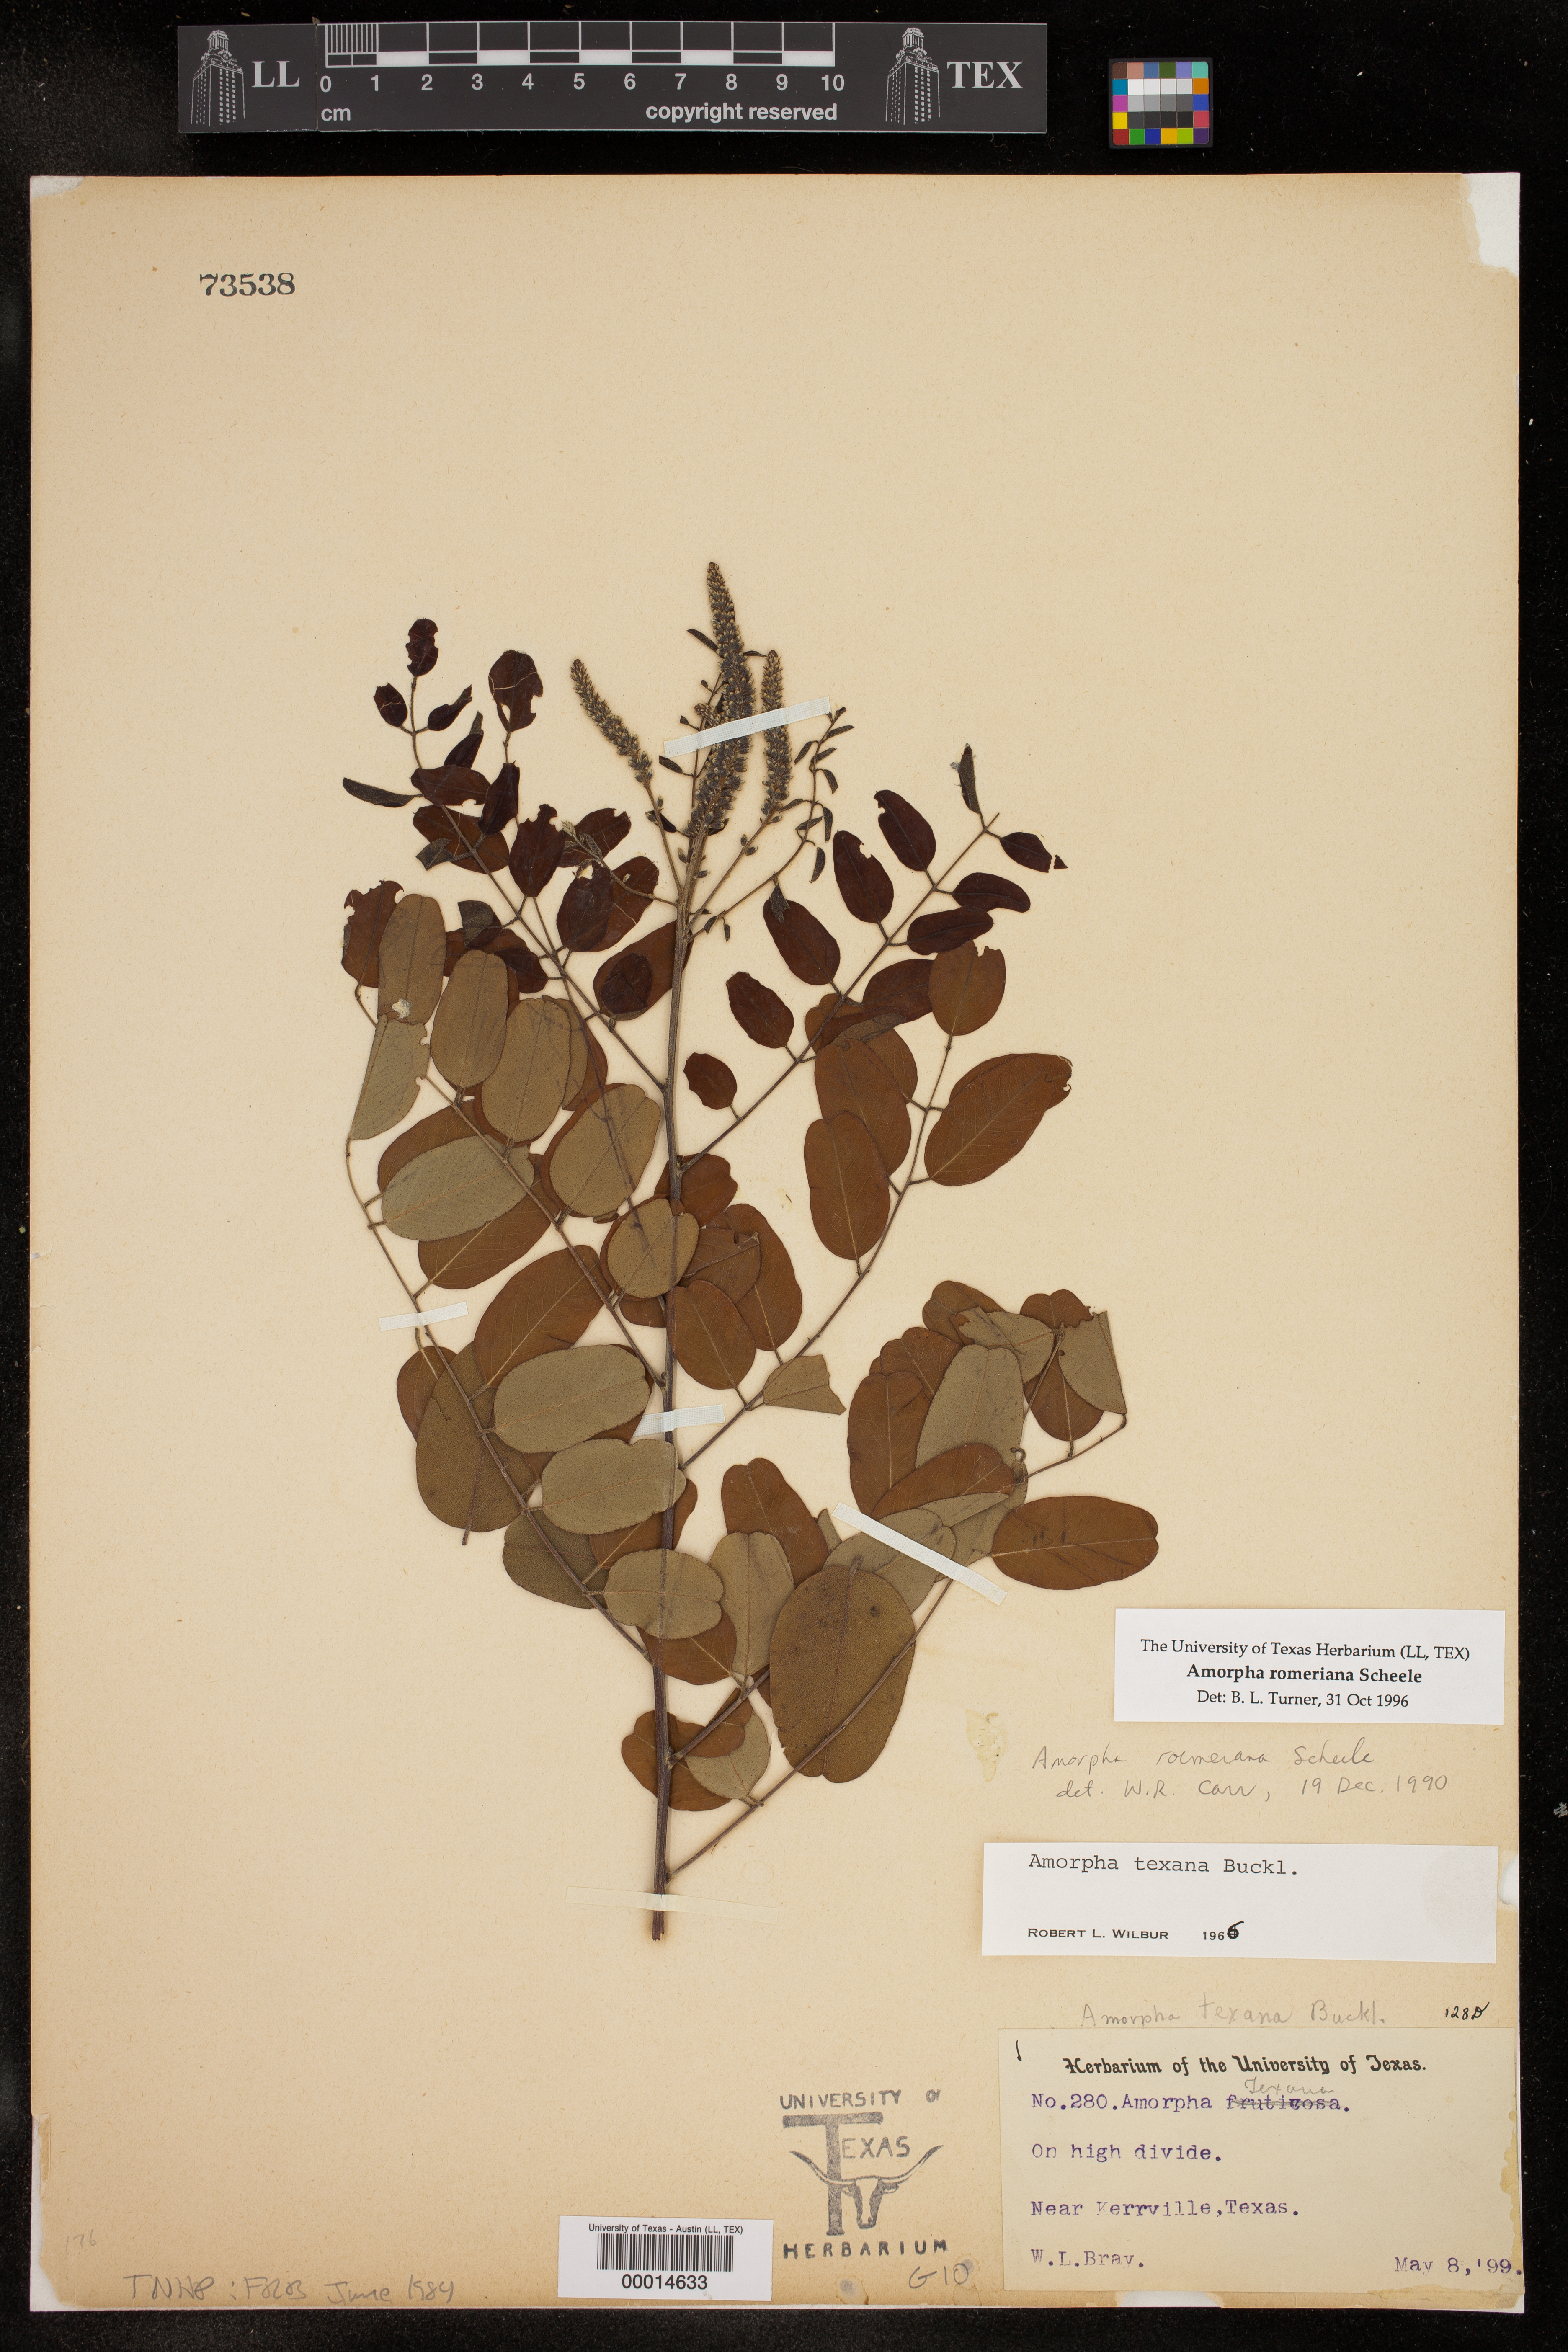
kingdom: Plantae
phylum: Tracheophyta
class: Magnoliopsida
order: Fabales
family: Fabaceae
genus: Amorpha
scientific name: Amorpha roemeriana
